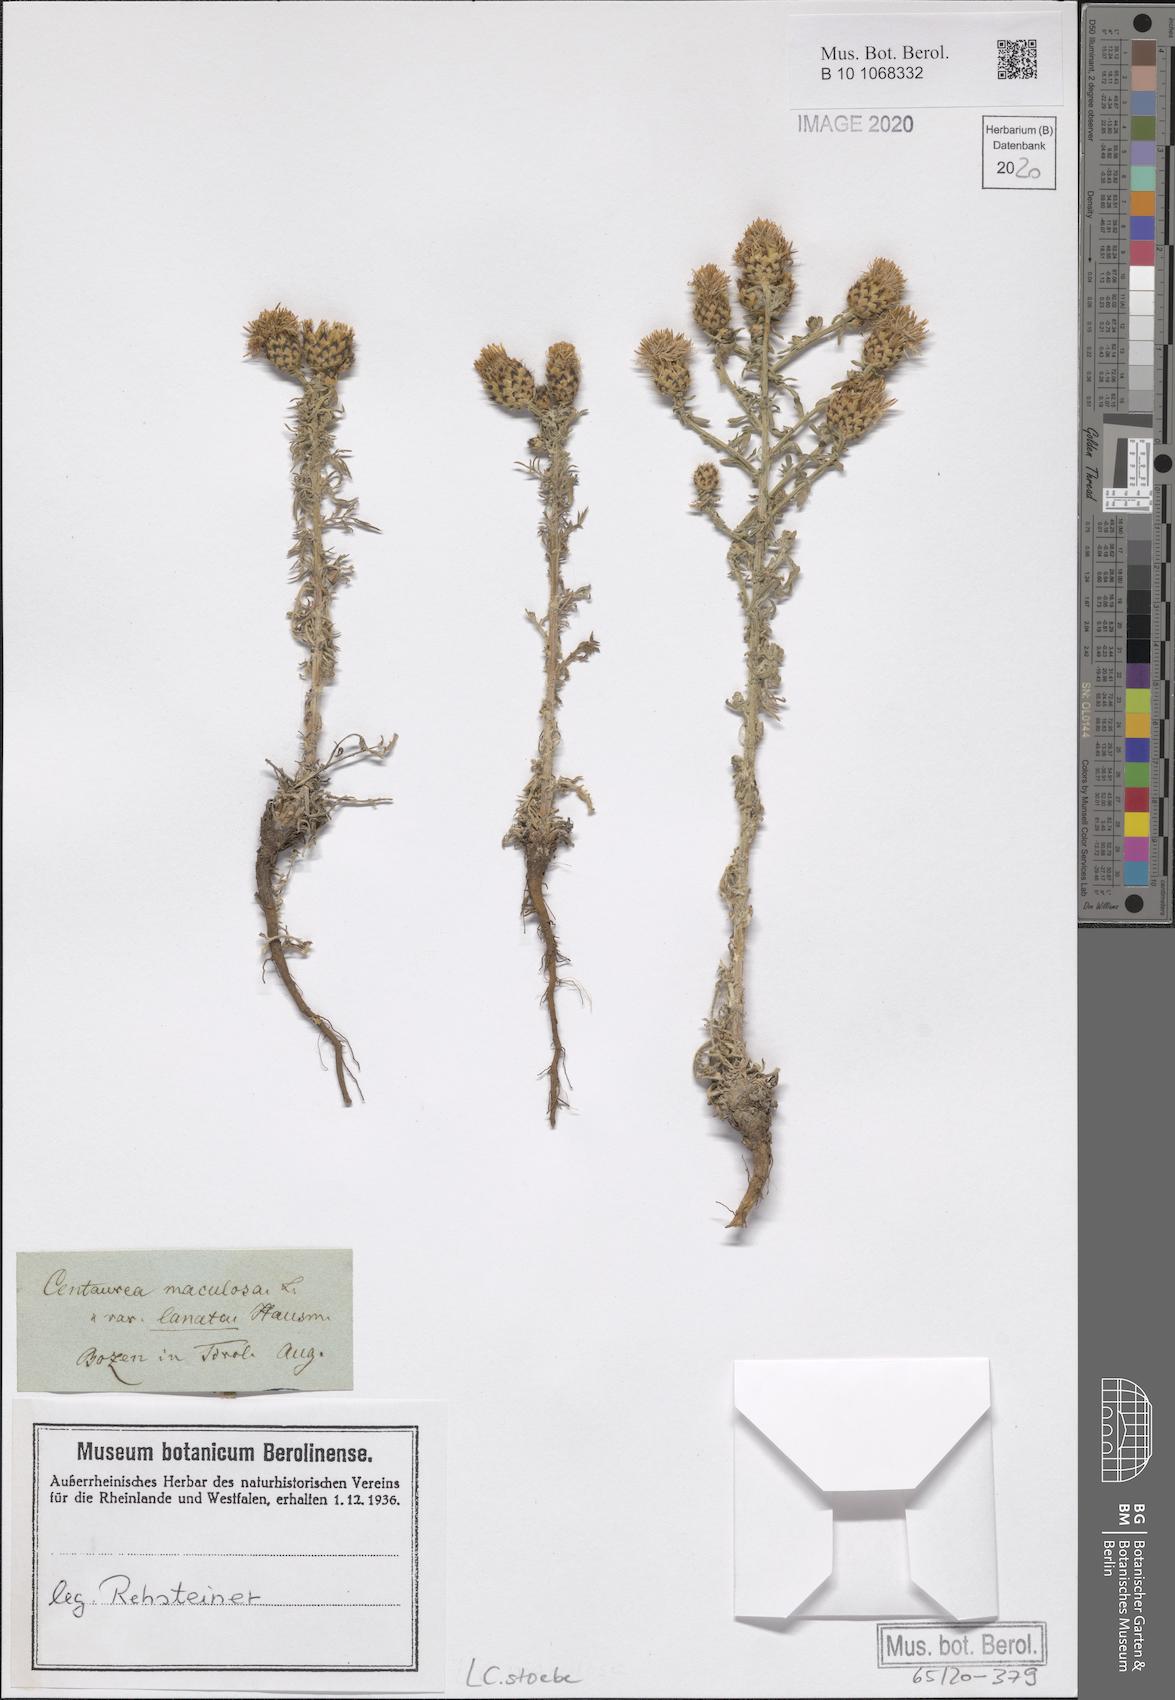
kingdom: Plantae
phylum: Tracheophyta
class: Magnoliopsida
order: Asterales
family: Asteraceae
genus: Centaurea
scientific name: Centaurea stoebe
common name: Spotted knapweed
